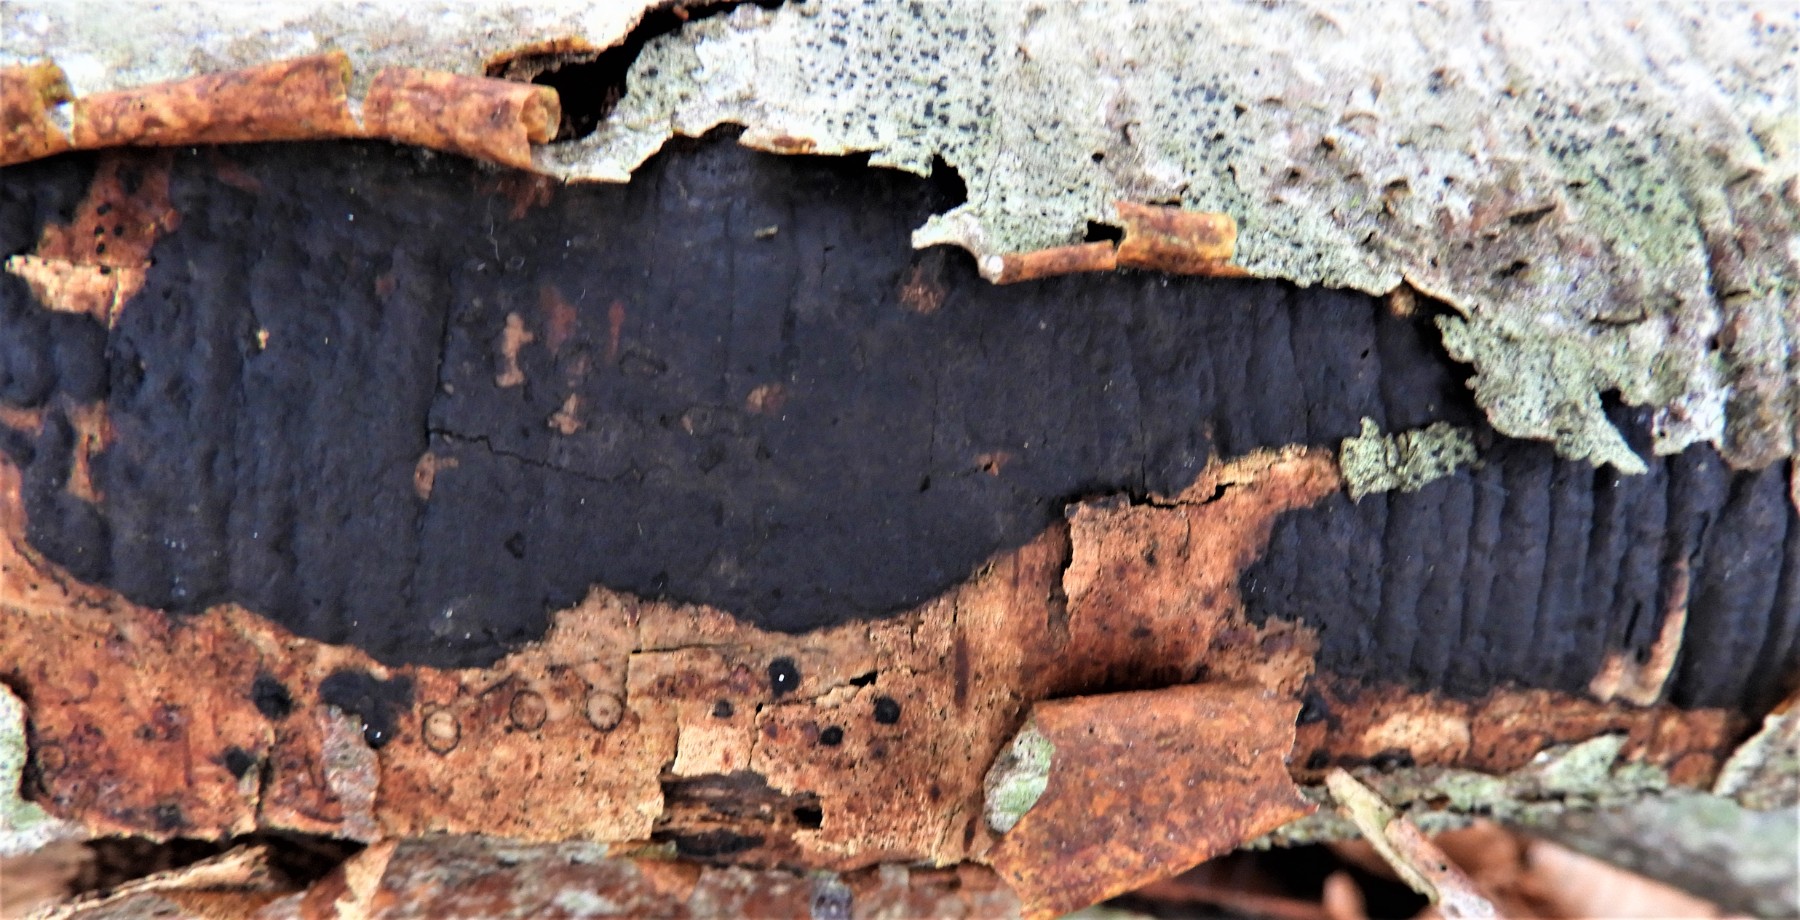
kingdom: Fungi
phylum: Ascomycota
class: Sordariomycetes
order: Xylariales
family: Diatrypaceae
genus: Diatrype
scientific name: Diatrype decorticata
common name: barksprænger-kulskorpe
